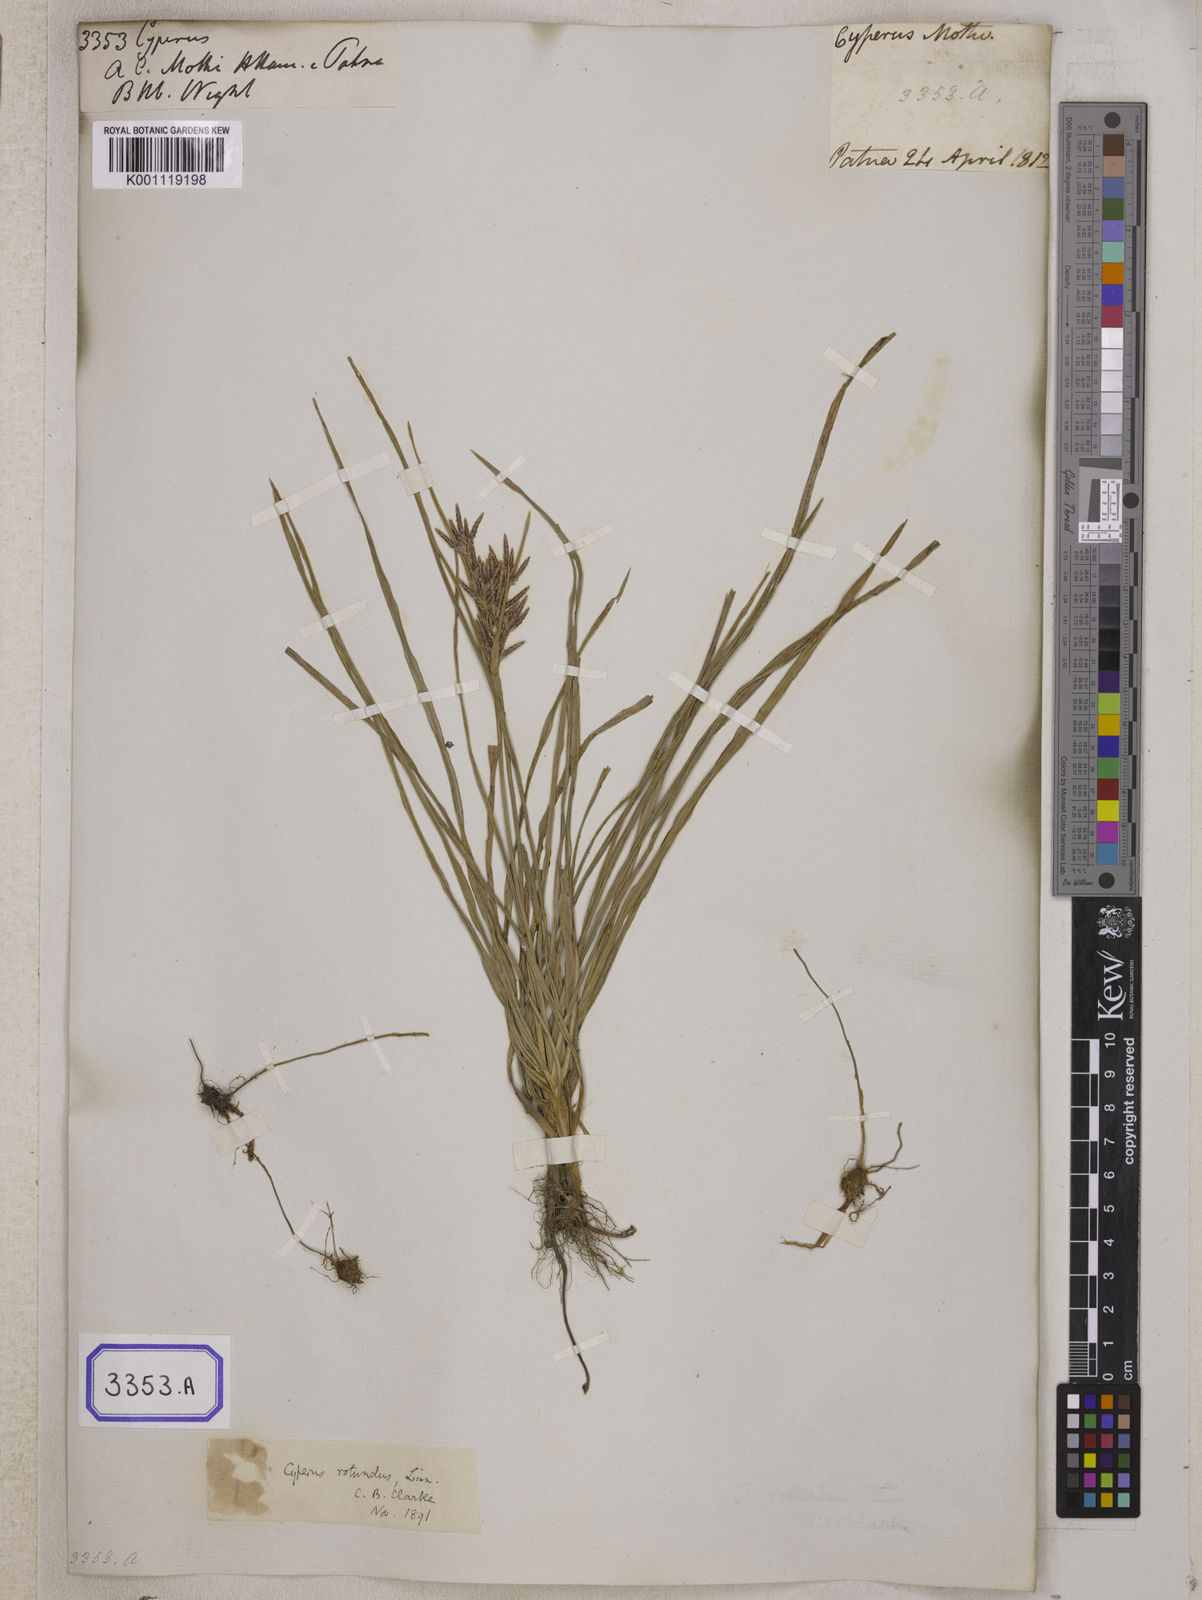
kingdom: Plantae
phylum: Tracheophyta
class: Liliopsida
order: Poales
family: Cyperaceae
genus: Cyperus
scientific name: Cyperus
